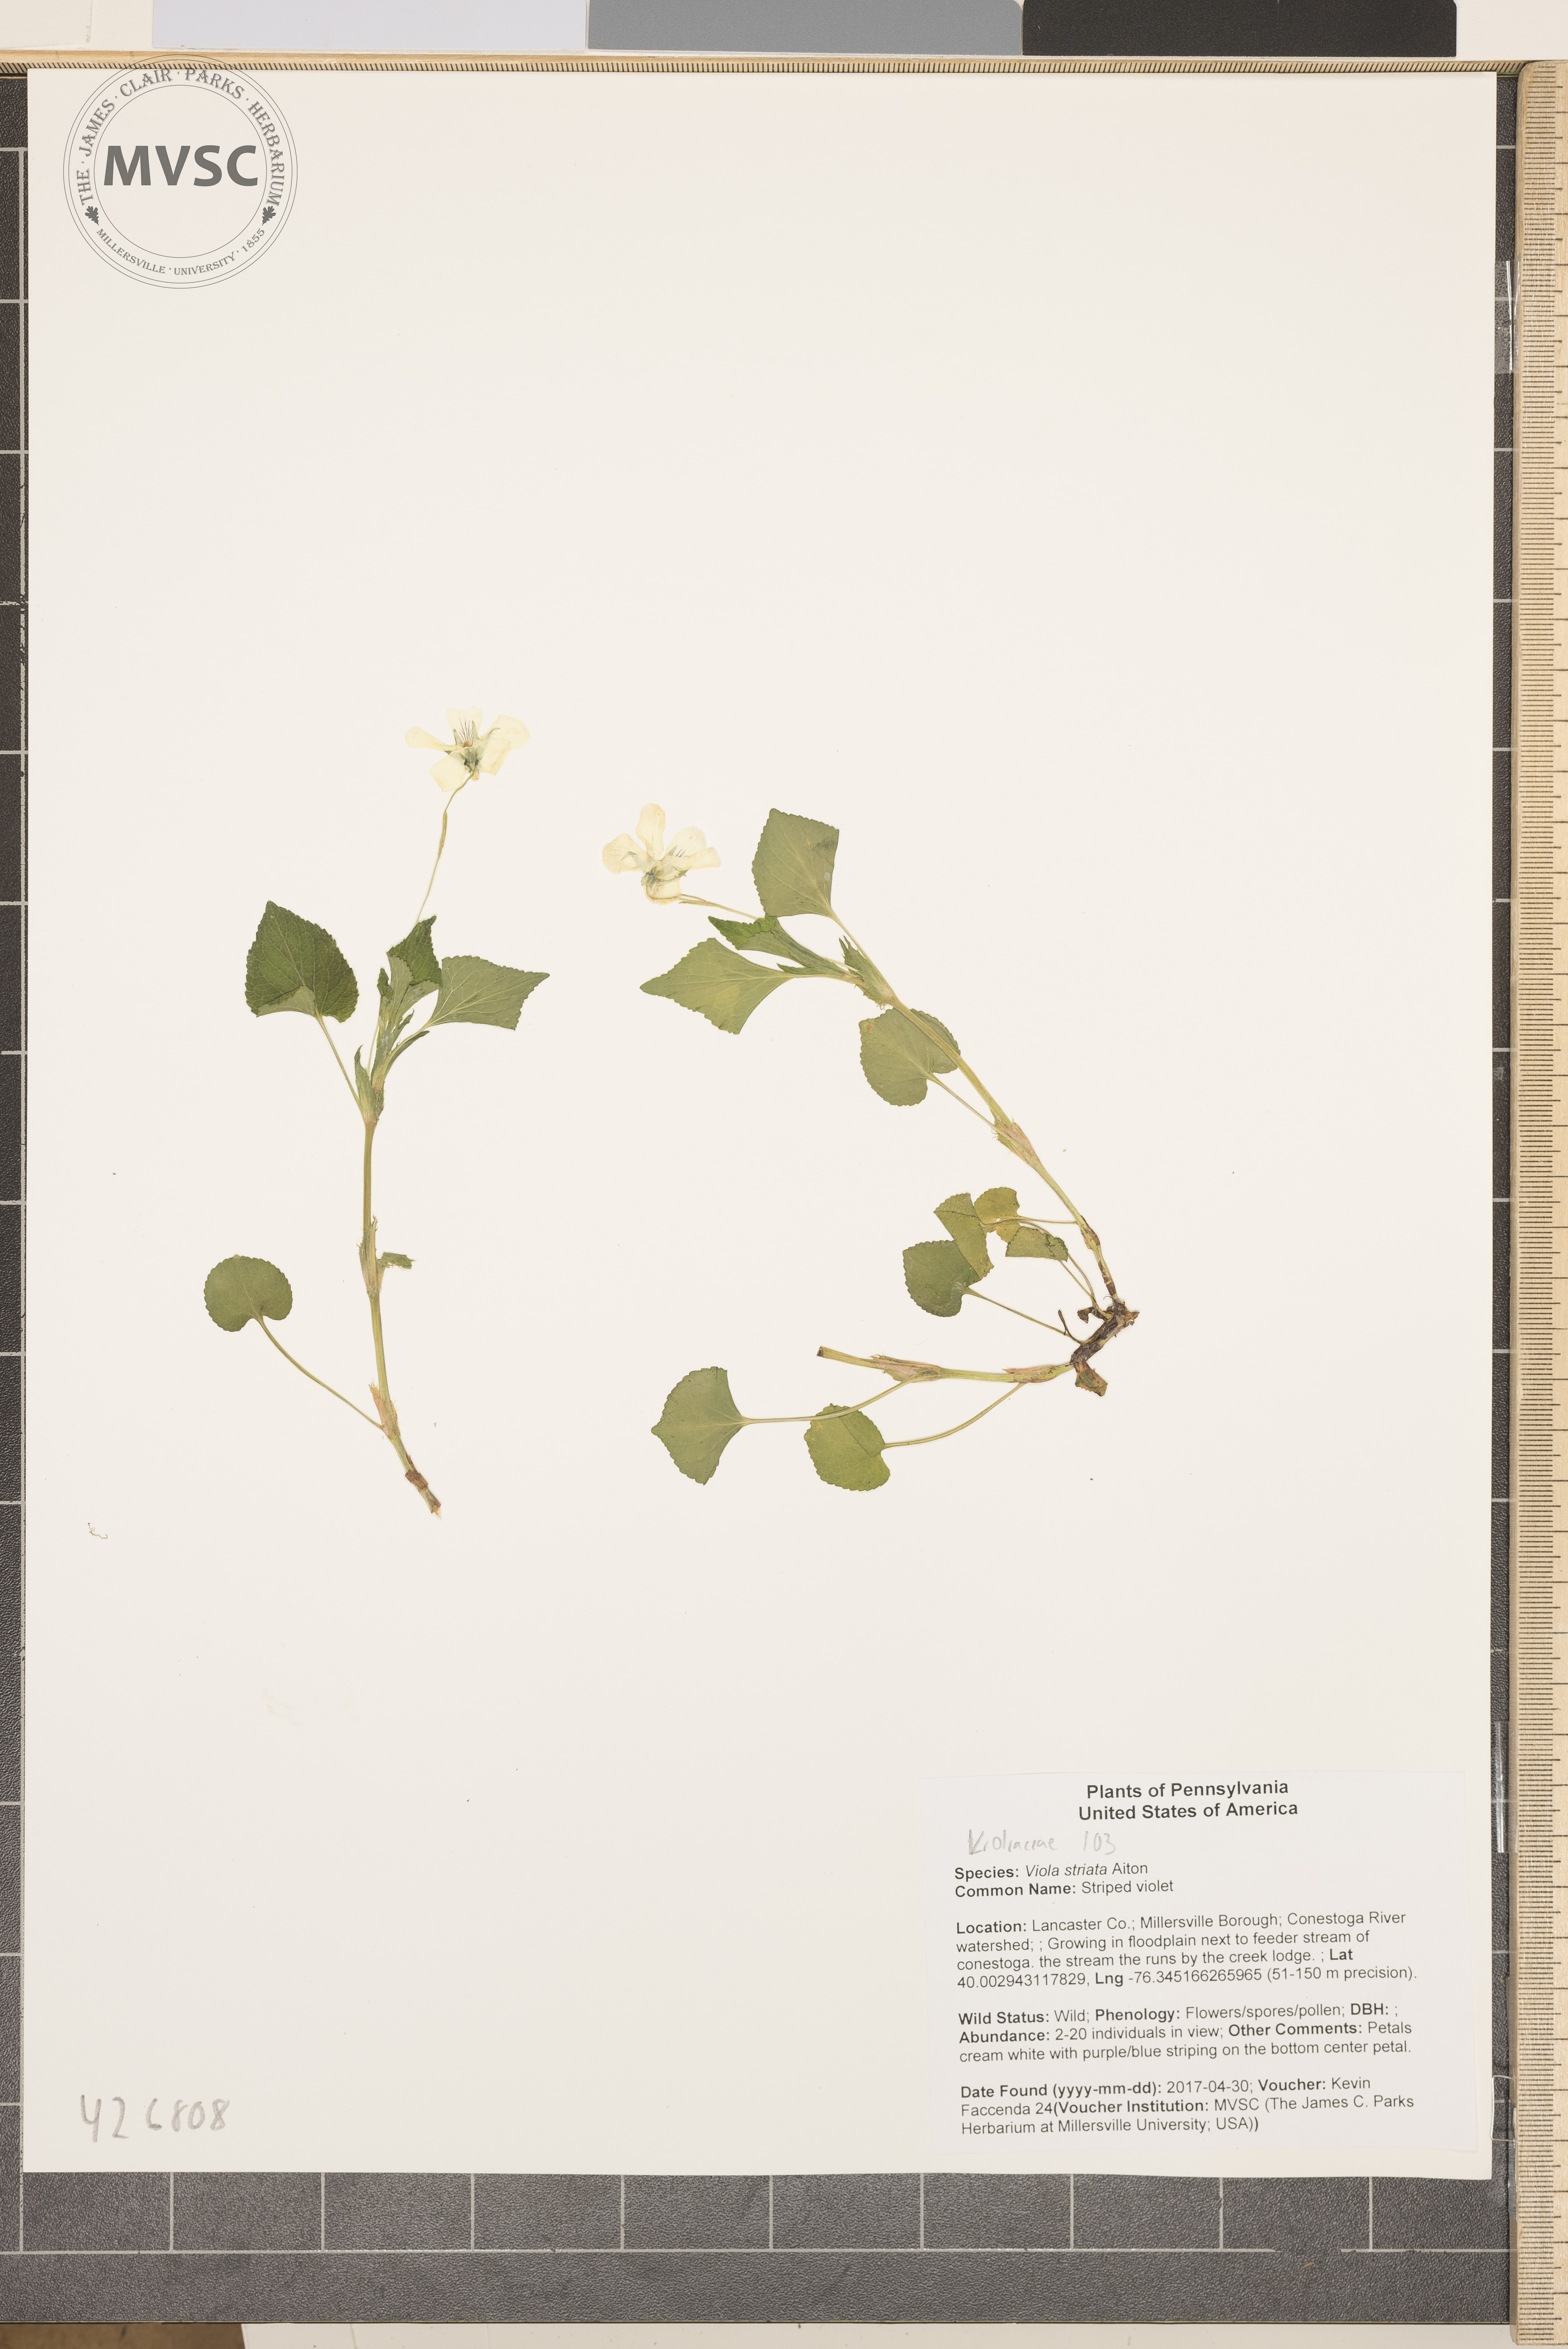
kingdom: Plantae
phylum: Tracheophyta
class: Magnoliopsida
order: Malpighiales
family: Violaceae
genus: Viola
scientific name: Viola striata
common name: Striped violet
